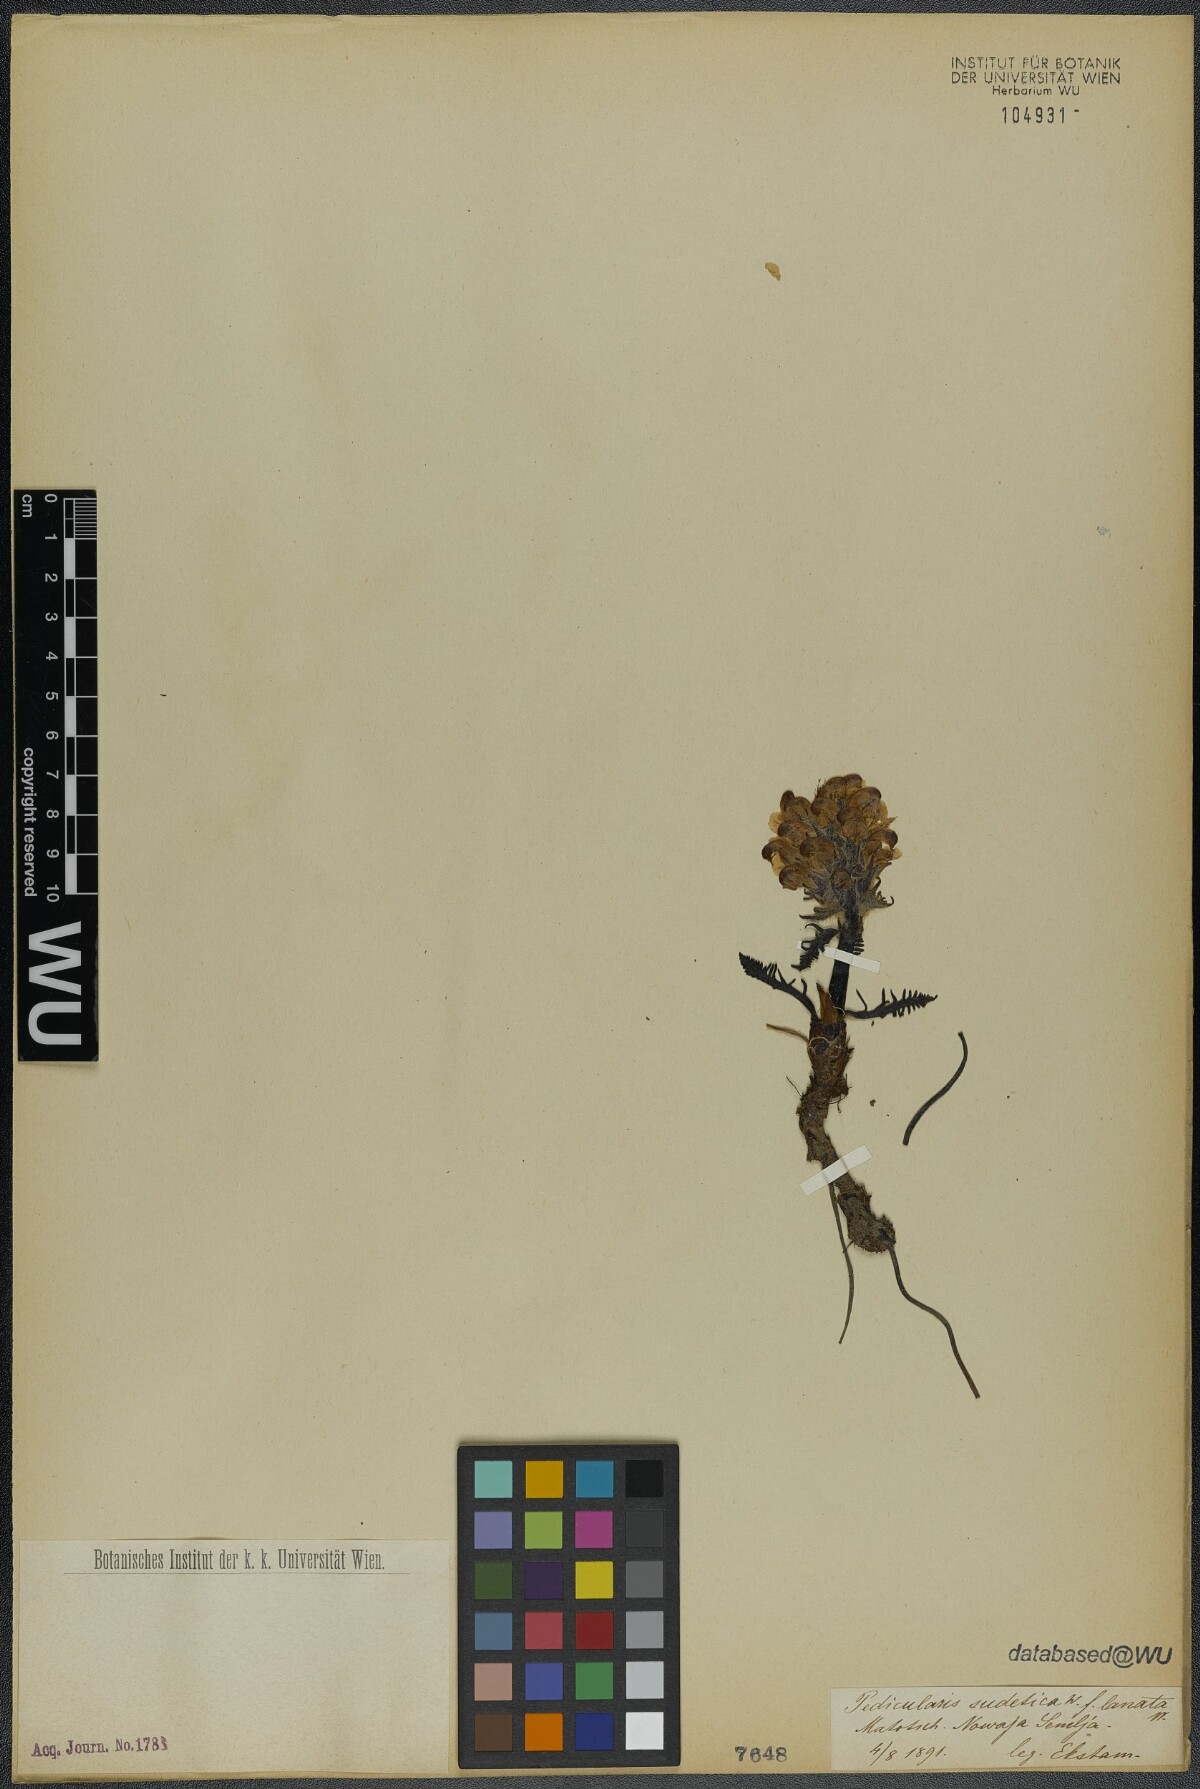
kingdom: Plantae
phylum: Tracheophyta
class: Magnoliopsida
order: Lamiales
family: Orobanchaceae
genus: Pedicularis
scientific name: Pedicularis sudetica
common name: Sudeten lousewort
